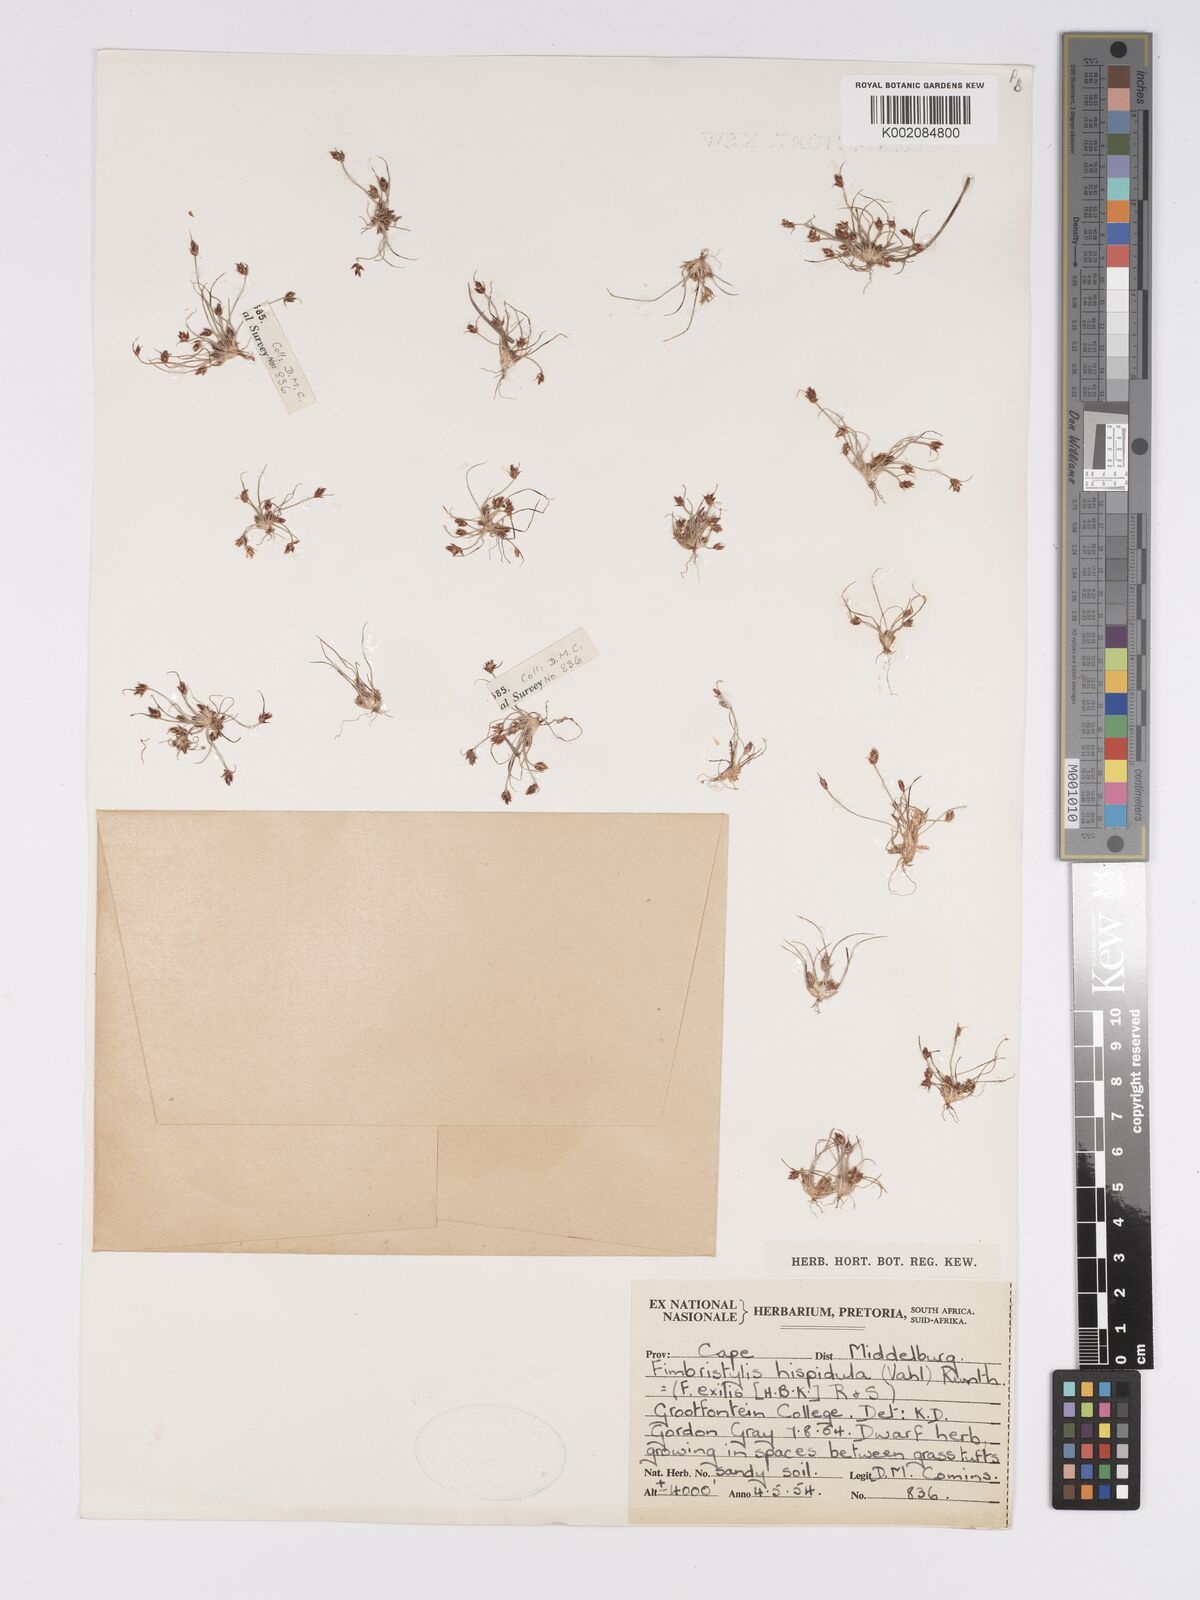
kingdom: Plantae
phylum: Tracheophyta
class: Liliopsida
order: Poales
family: Cyperaceae
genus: Bulbostylis
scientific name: Bulbostylis hispidula
